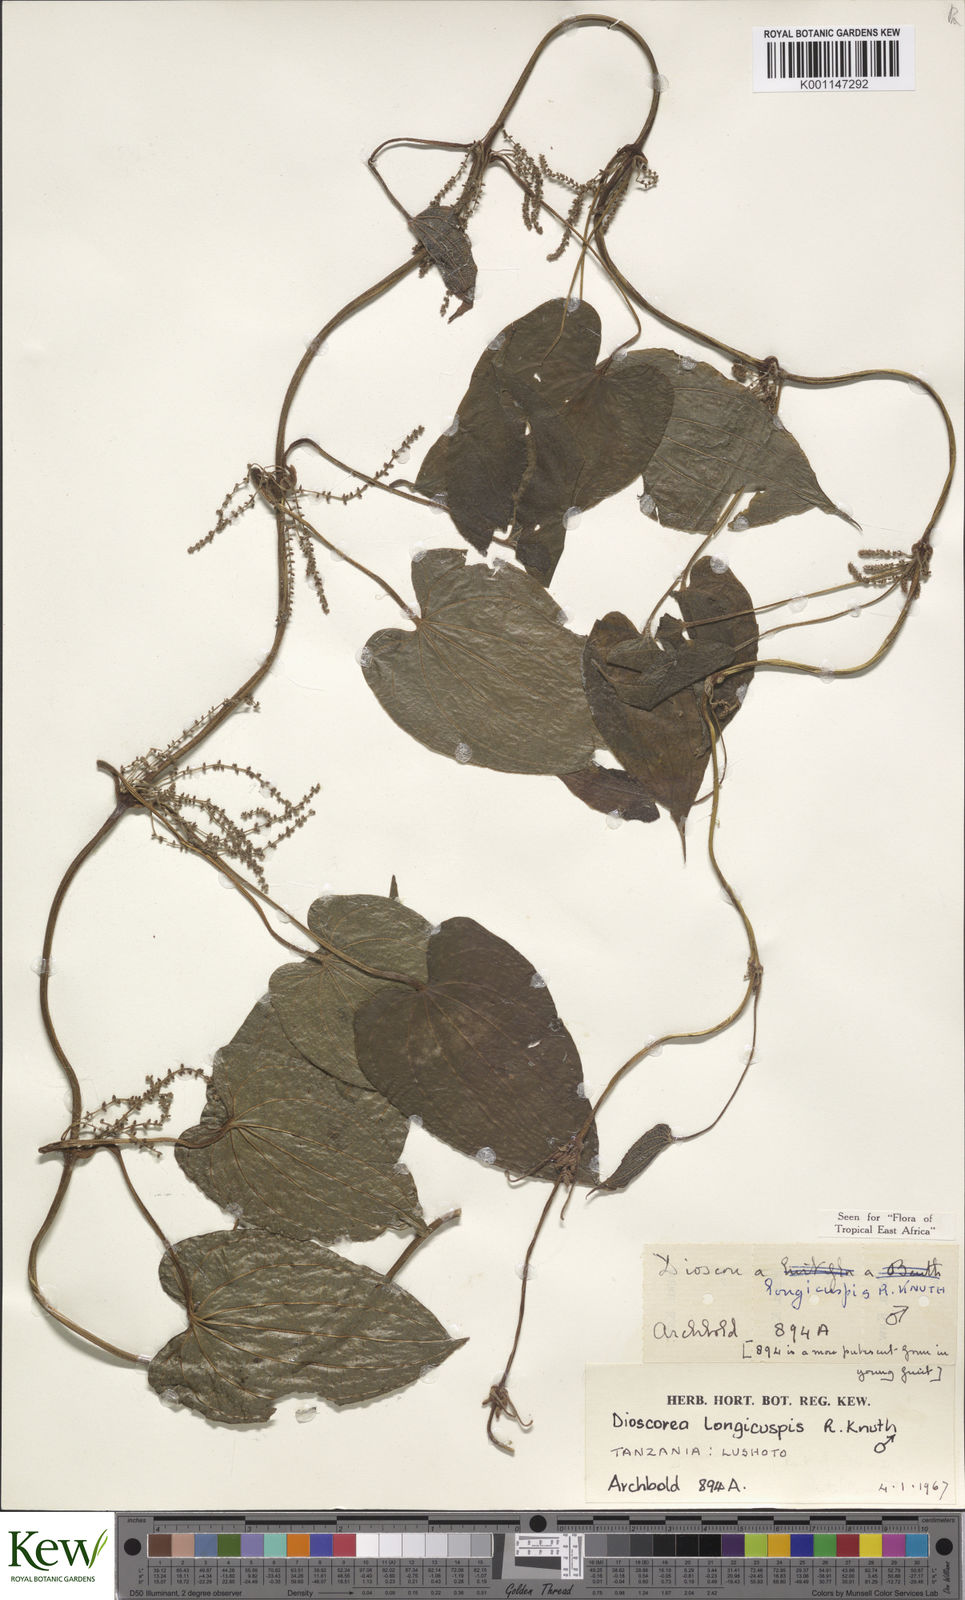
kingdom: Plantae
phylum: Tracheophyta
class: Liliopsida
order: Dioscoreales
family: Dioscoreaceae
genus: Dioscorea
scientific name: Dioscorea longicuspis
